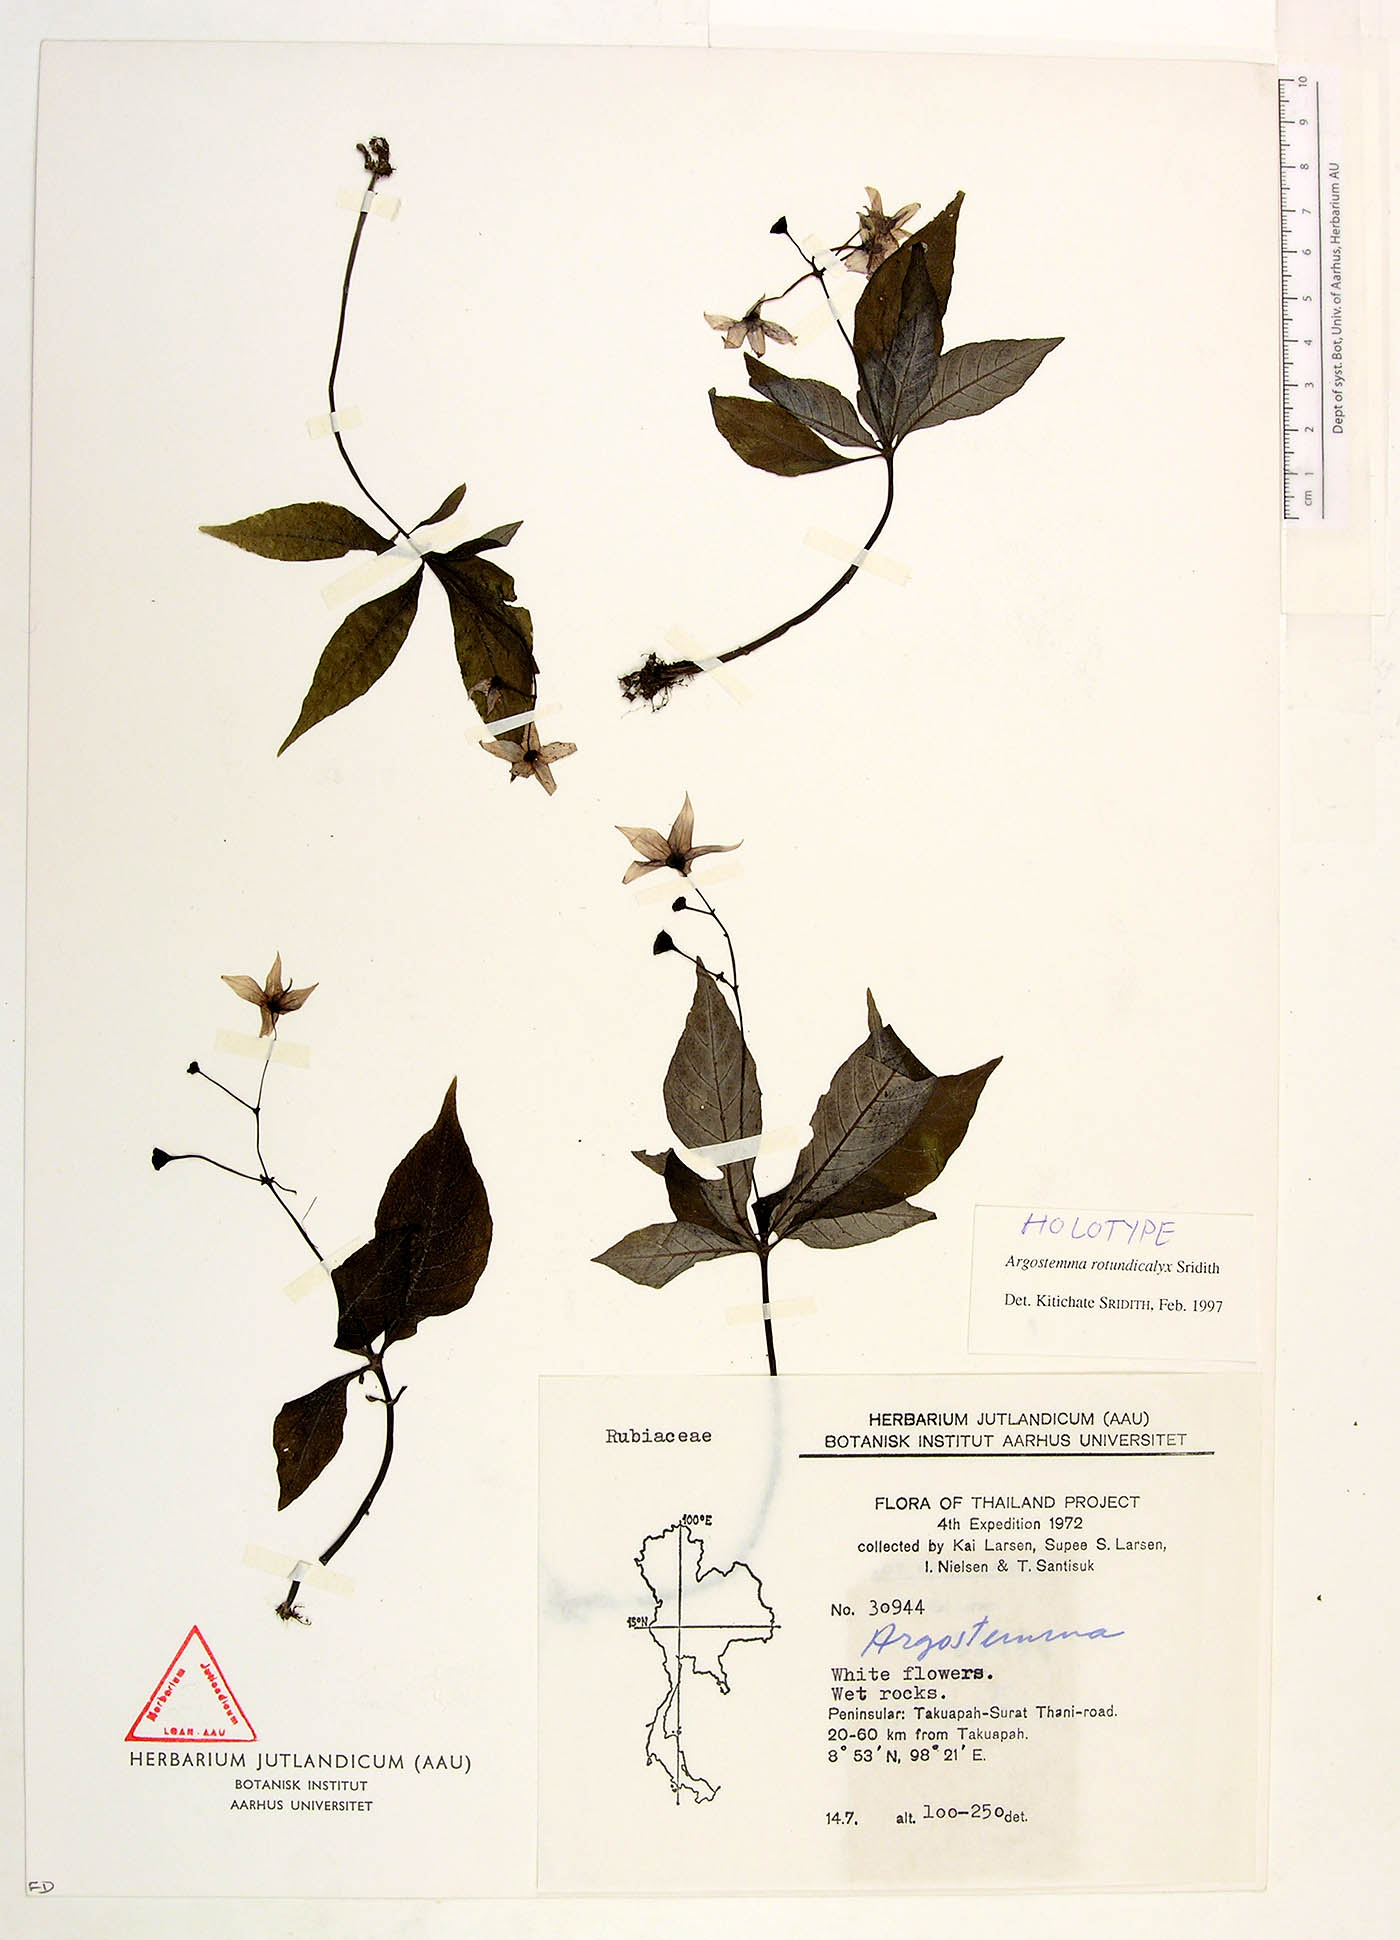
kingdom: Plantae
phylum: Tracheophyta
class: Magnoliopsida
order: Gentianales
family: Rubiaceae
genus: Argostemma
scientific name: Argostemma rotundicalyx
